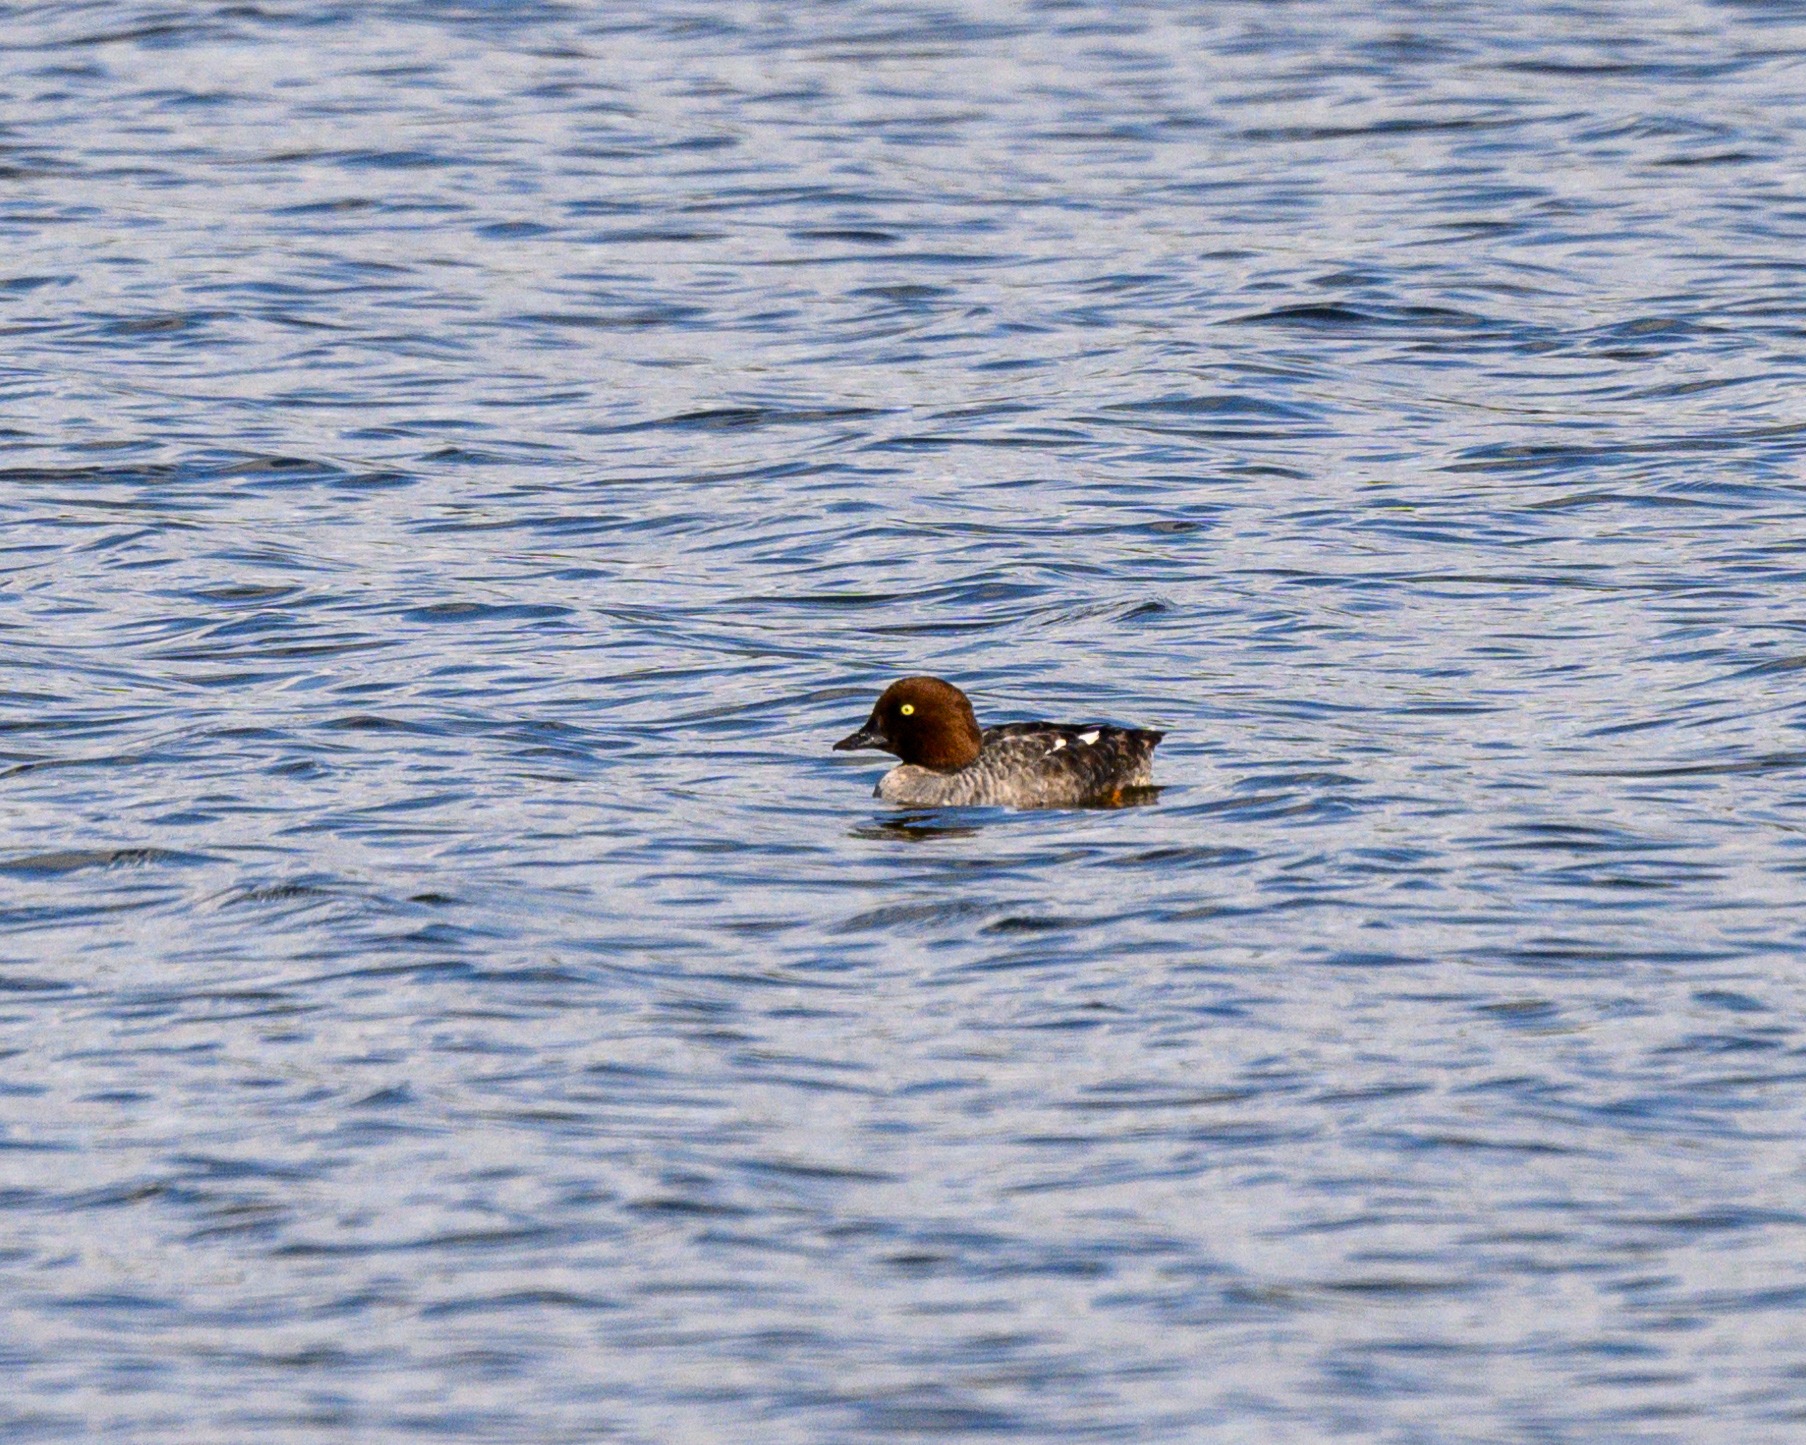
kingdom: Animalia
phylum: Chordata
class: Aves
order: Anseriformes
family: Anatidae
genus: Bucephala
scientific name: Bucephala clangula
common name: Hvinand
